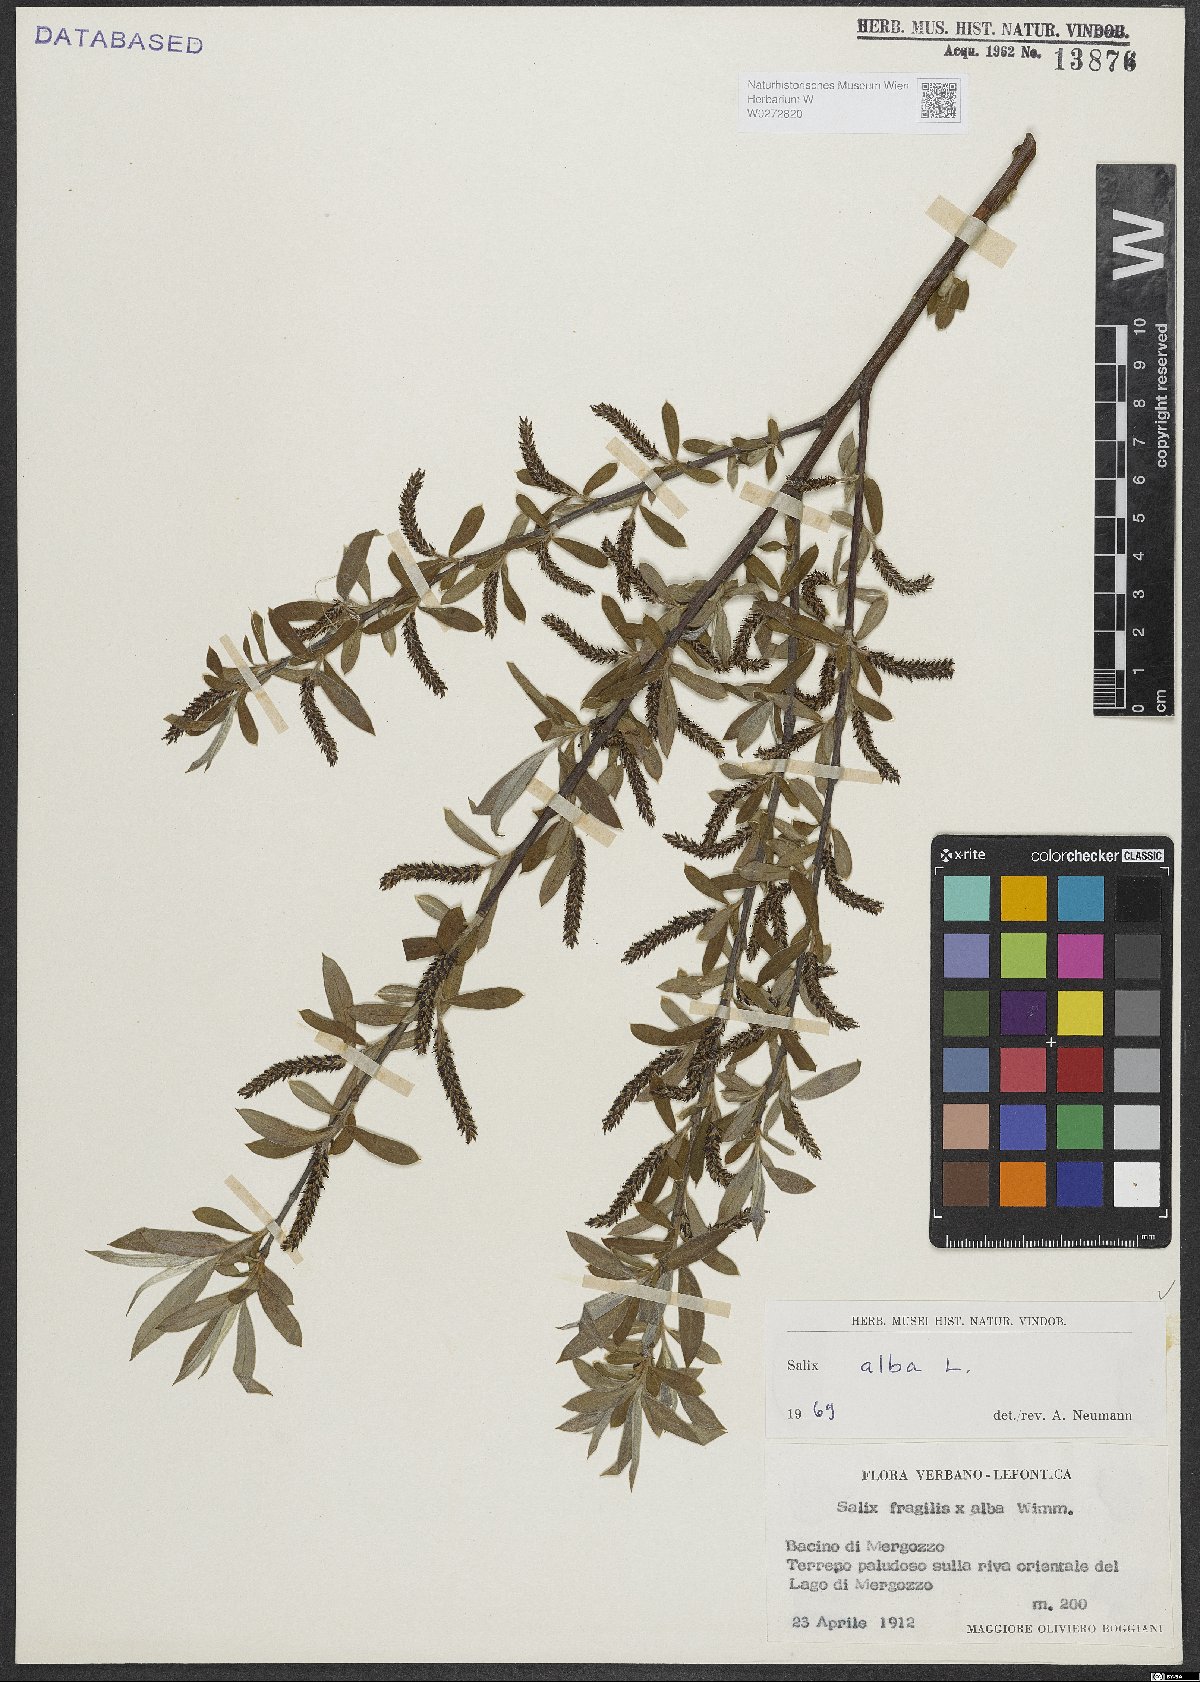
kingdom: Plantae
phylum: Tracheophyta
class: Magnoliopsida
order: Malpighiales
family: Salicaceae
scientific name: Salicaceae
